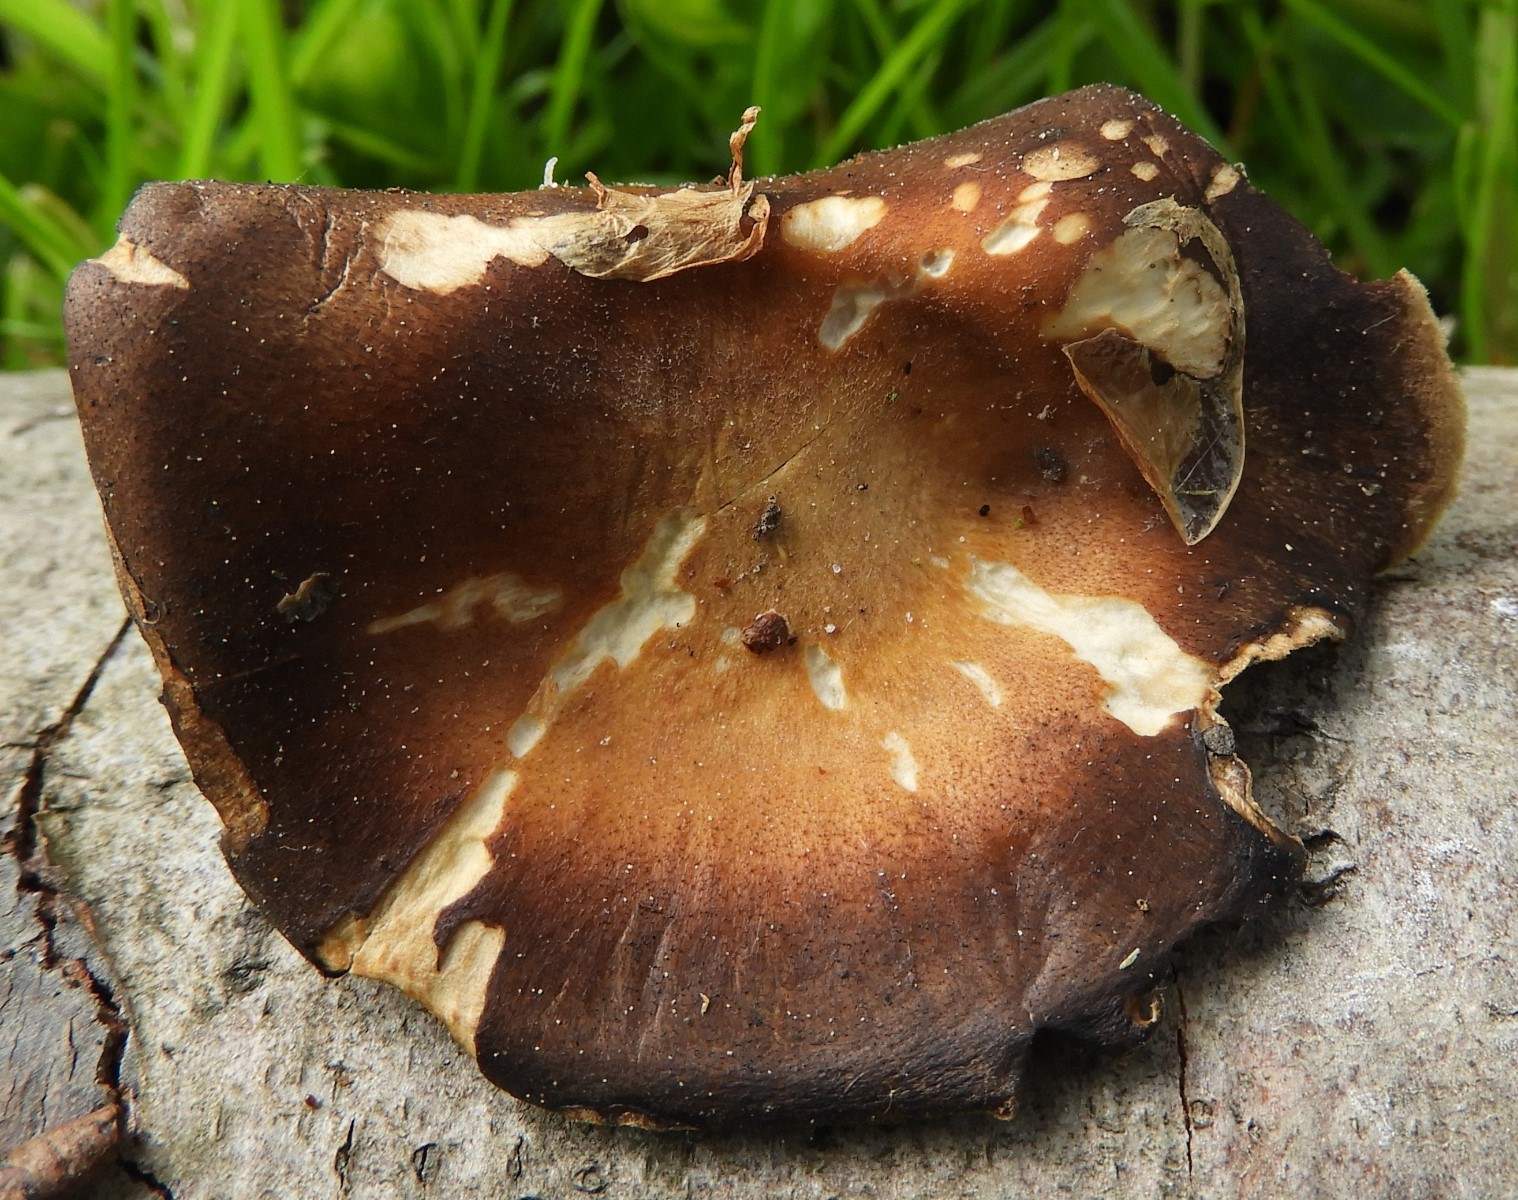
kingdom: Fungi
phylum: Basidiomycota
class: Agaricomycetes
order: Polyporales
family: Polyporaceae
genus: Lentinus
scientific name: Lentinus brumalis
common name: vinter-stilkporesvamp
